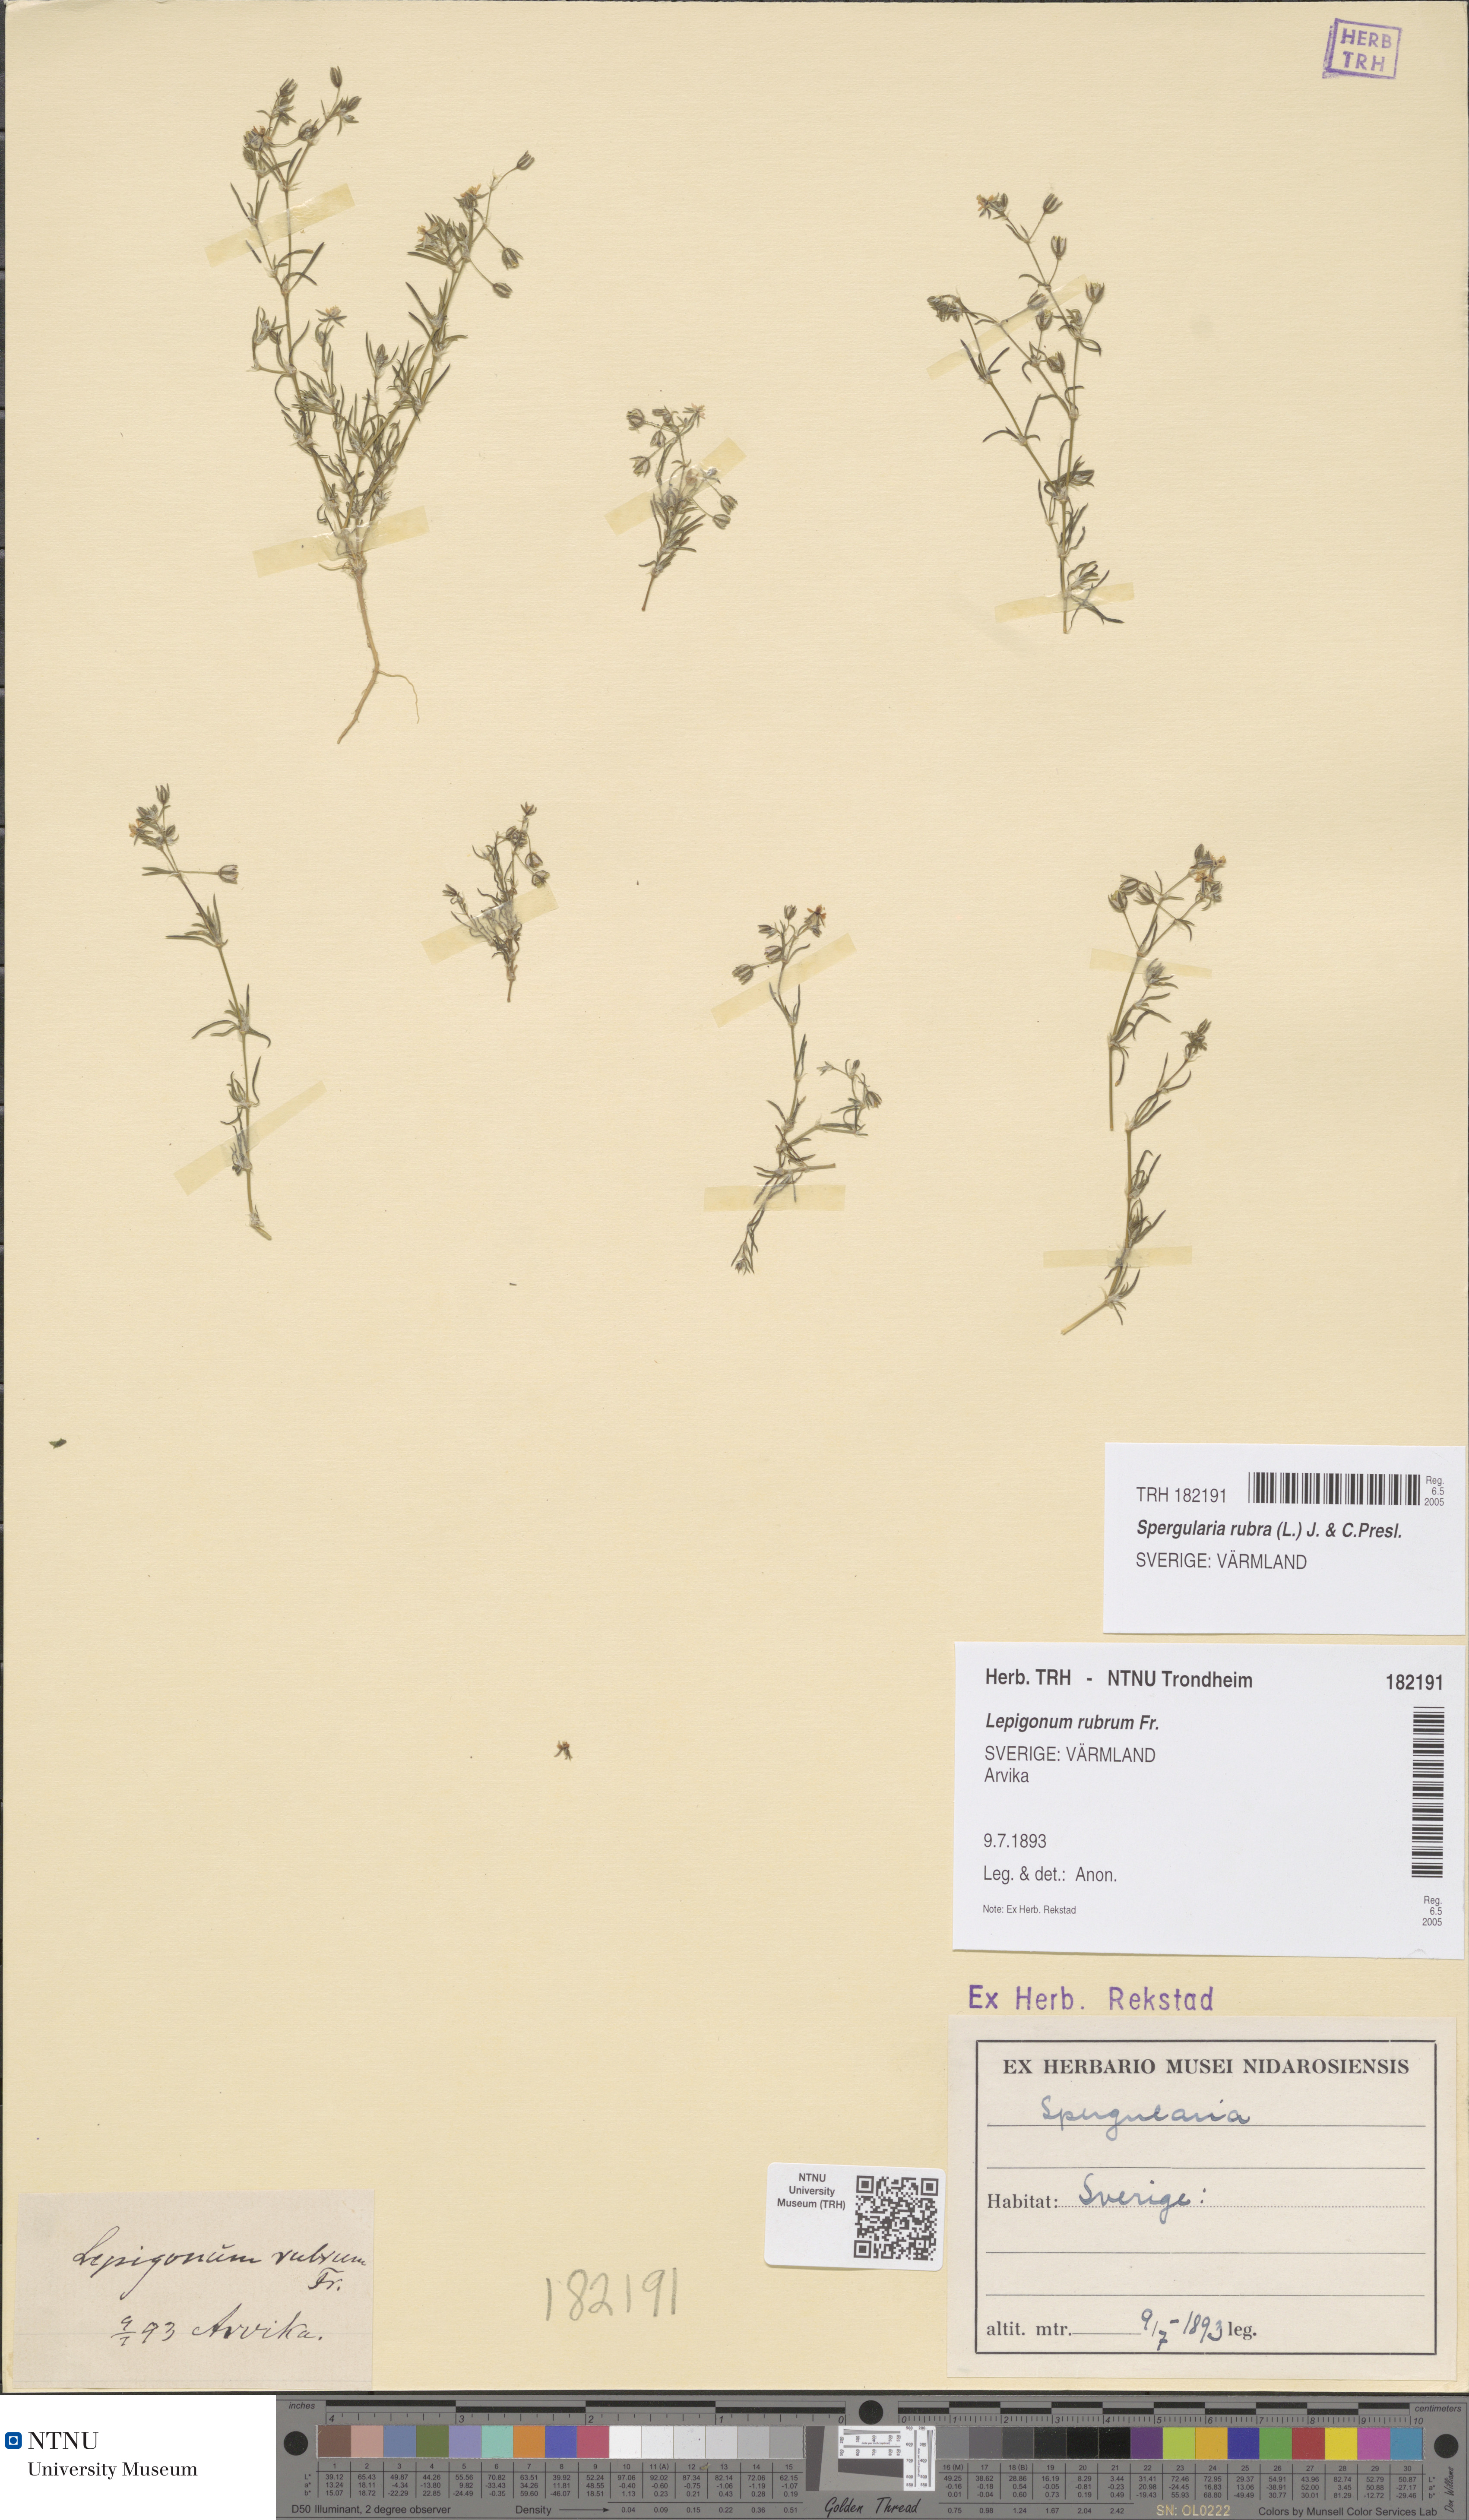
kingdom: Plantae
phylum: Tracheophyta
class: Magnoliopsida
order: Caryophyllales
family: Caryophyllaceae
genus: Spergularia
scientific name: Spergularia rubra
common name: Red sand-spurrey
